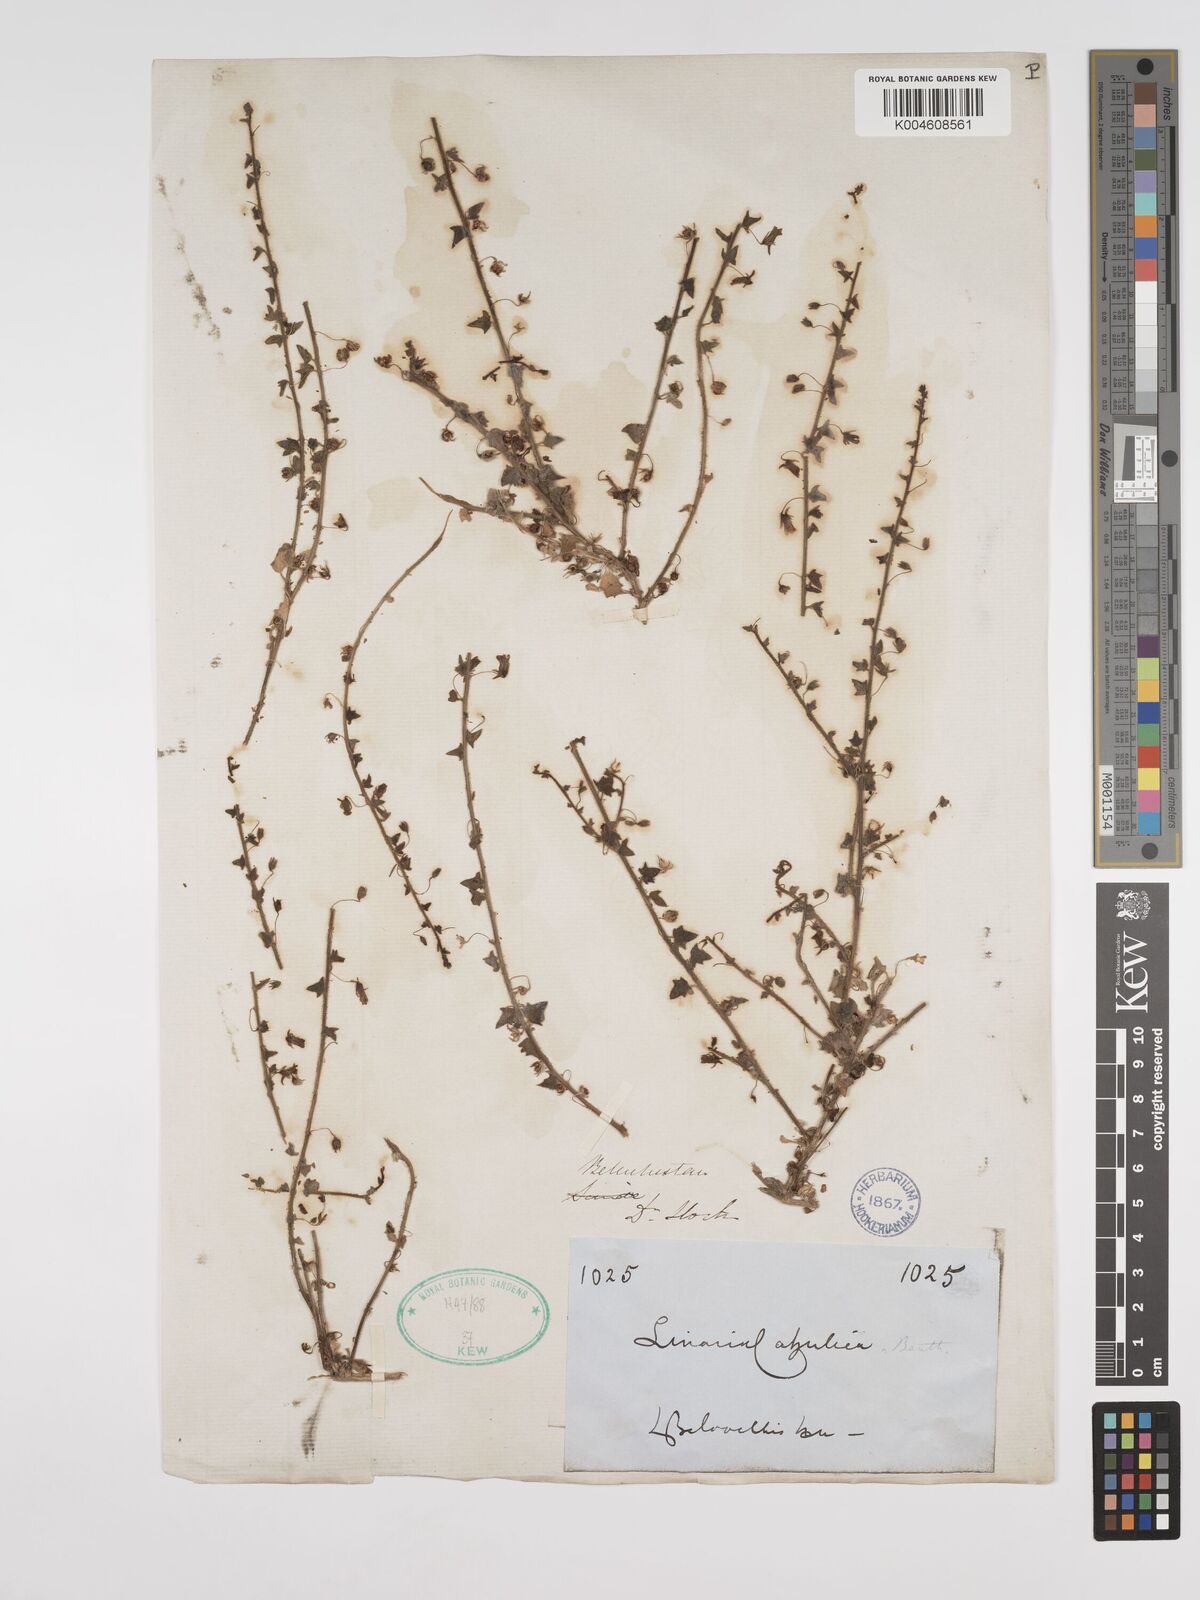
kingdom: Plantae
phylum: Tracheophyta
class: Magnoliopsida
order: Lamiales
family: Plantaginaceae
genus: Nanorrhinum
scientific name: Nanorrhinum ramosissimum
